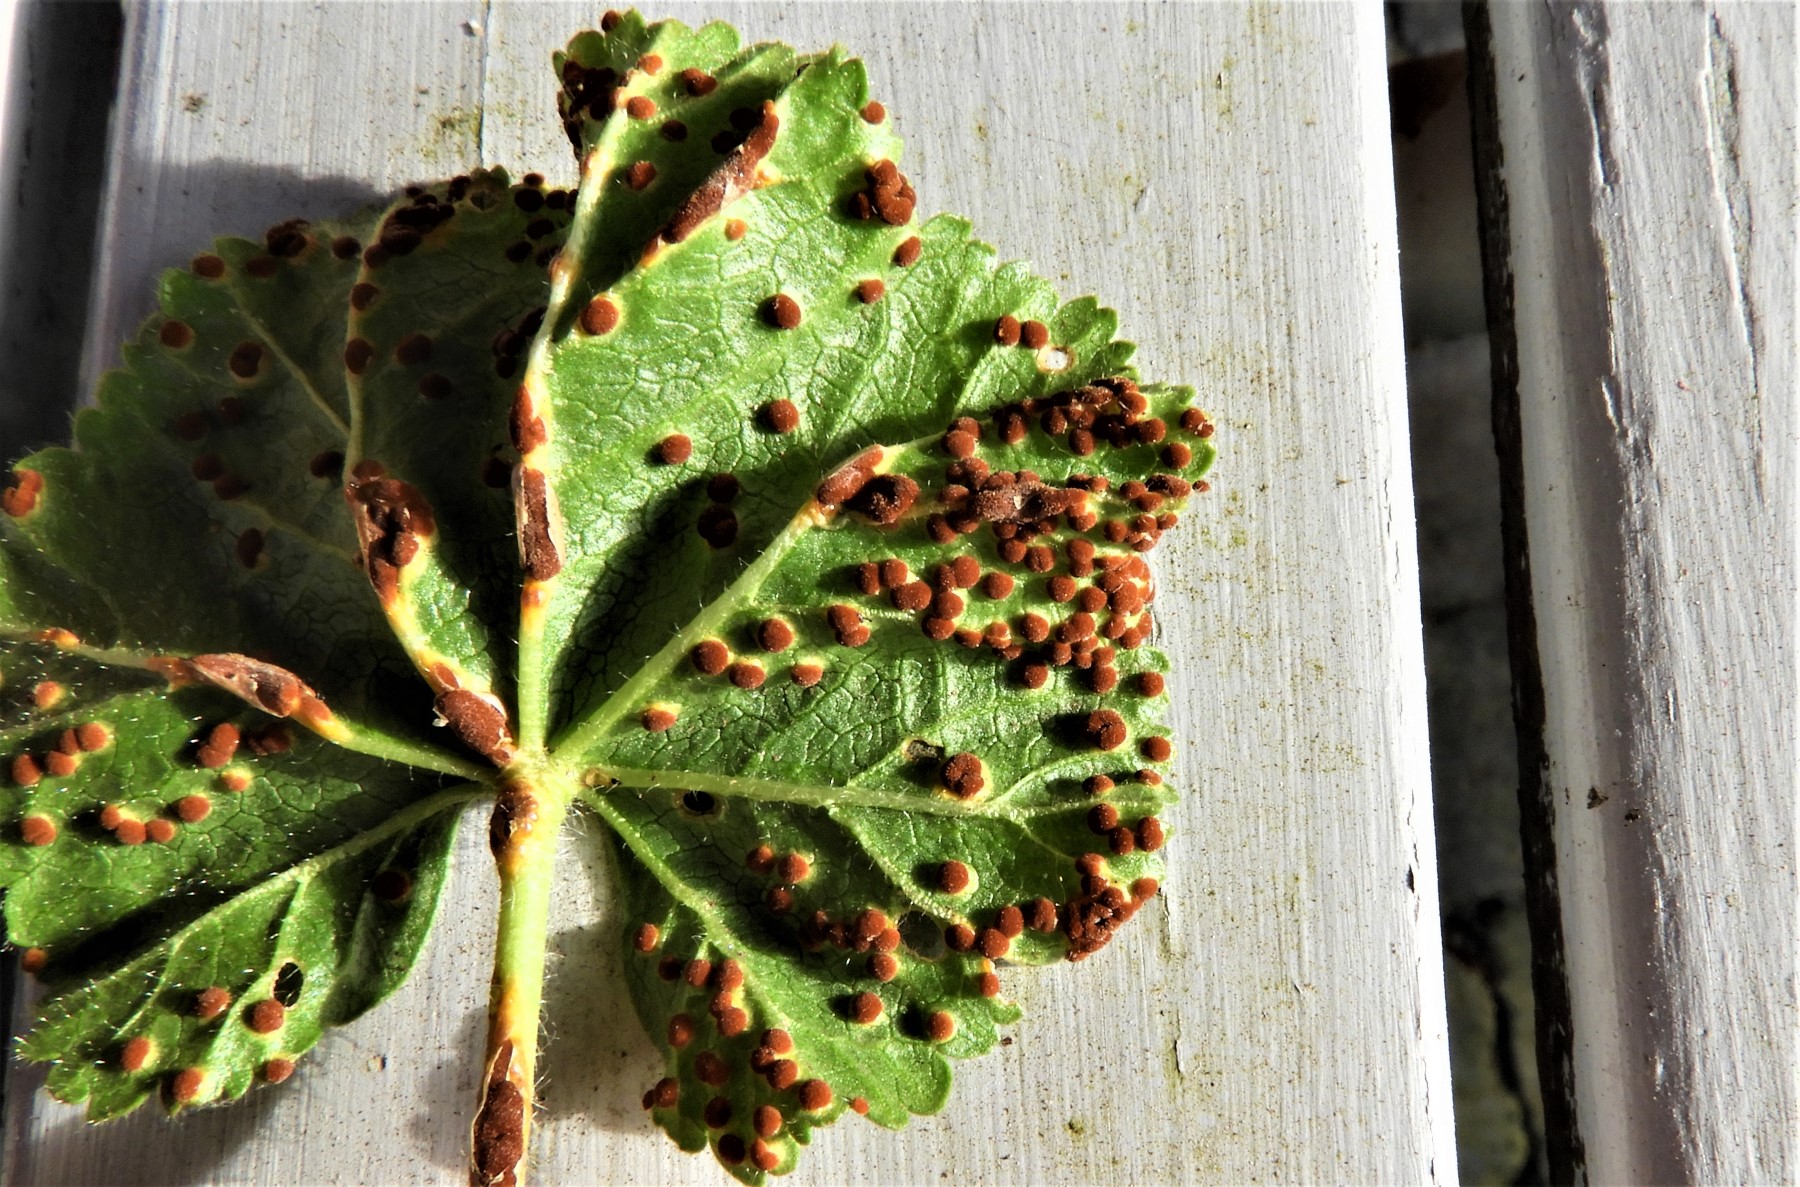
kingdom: Fungi
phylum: Basidiomycota
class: Pucciniomycetes
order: Pucciniales
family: Pucciniaceae
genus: Puccinia
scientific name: Puccinia malvacearum
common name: stokrose-tvecellerust
